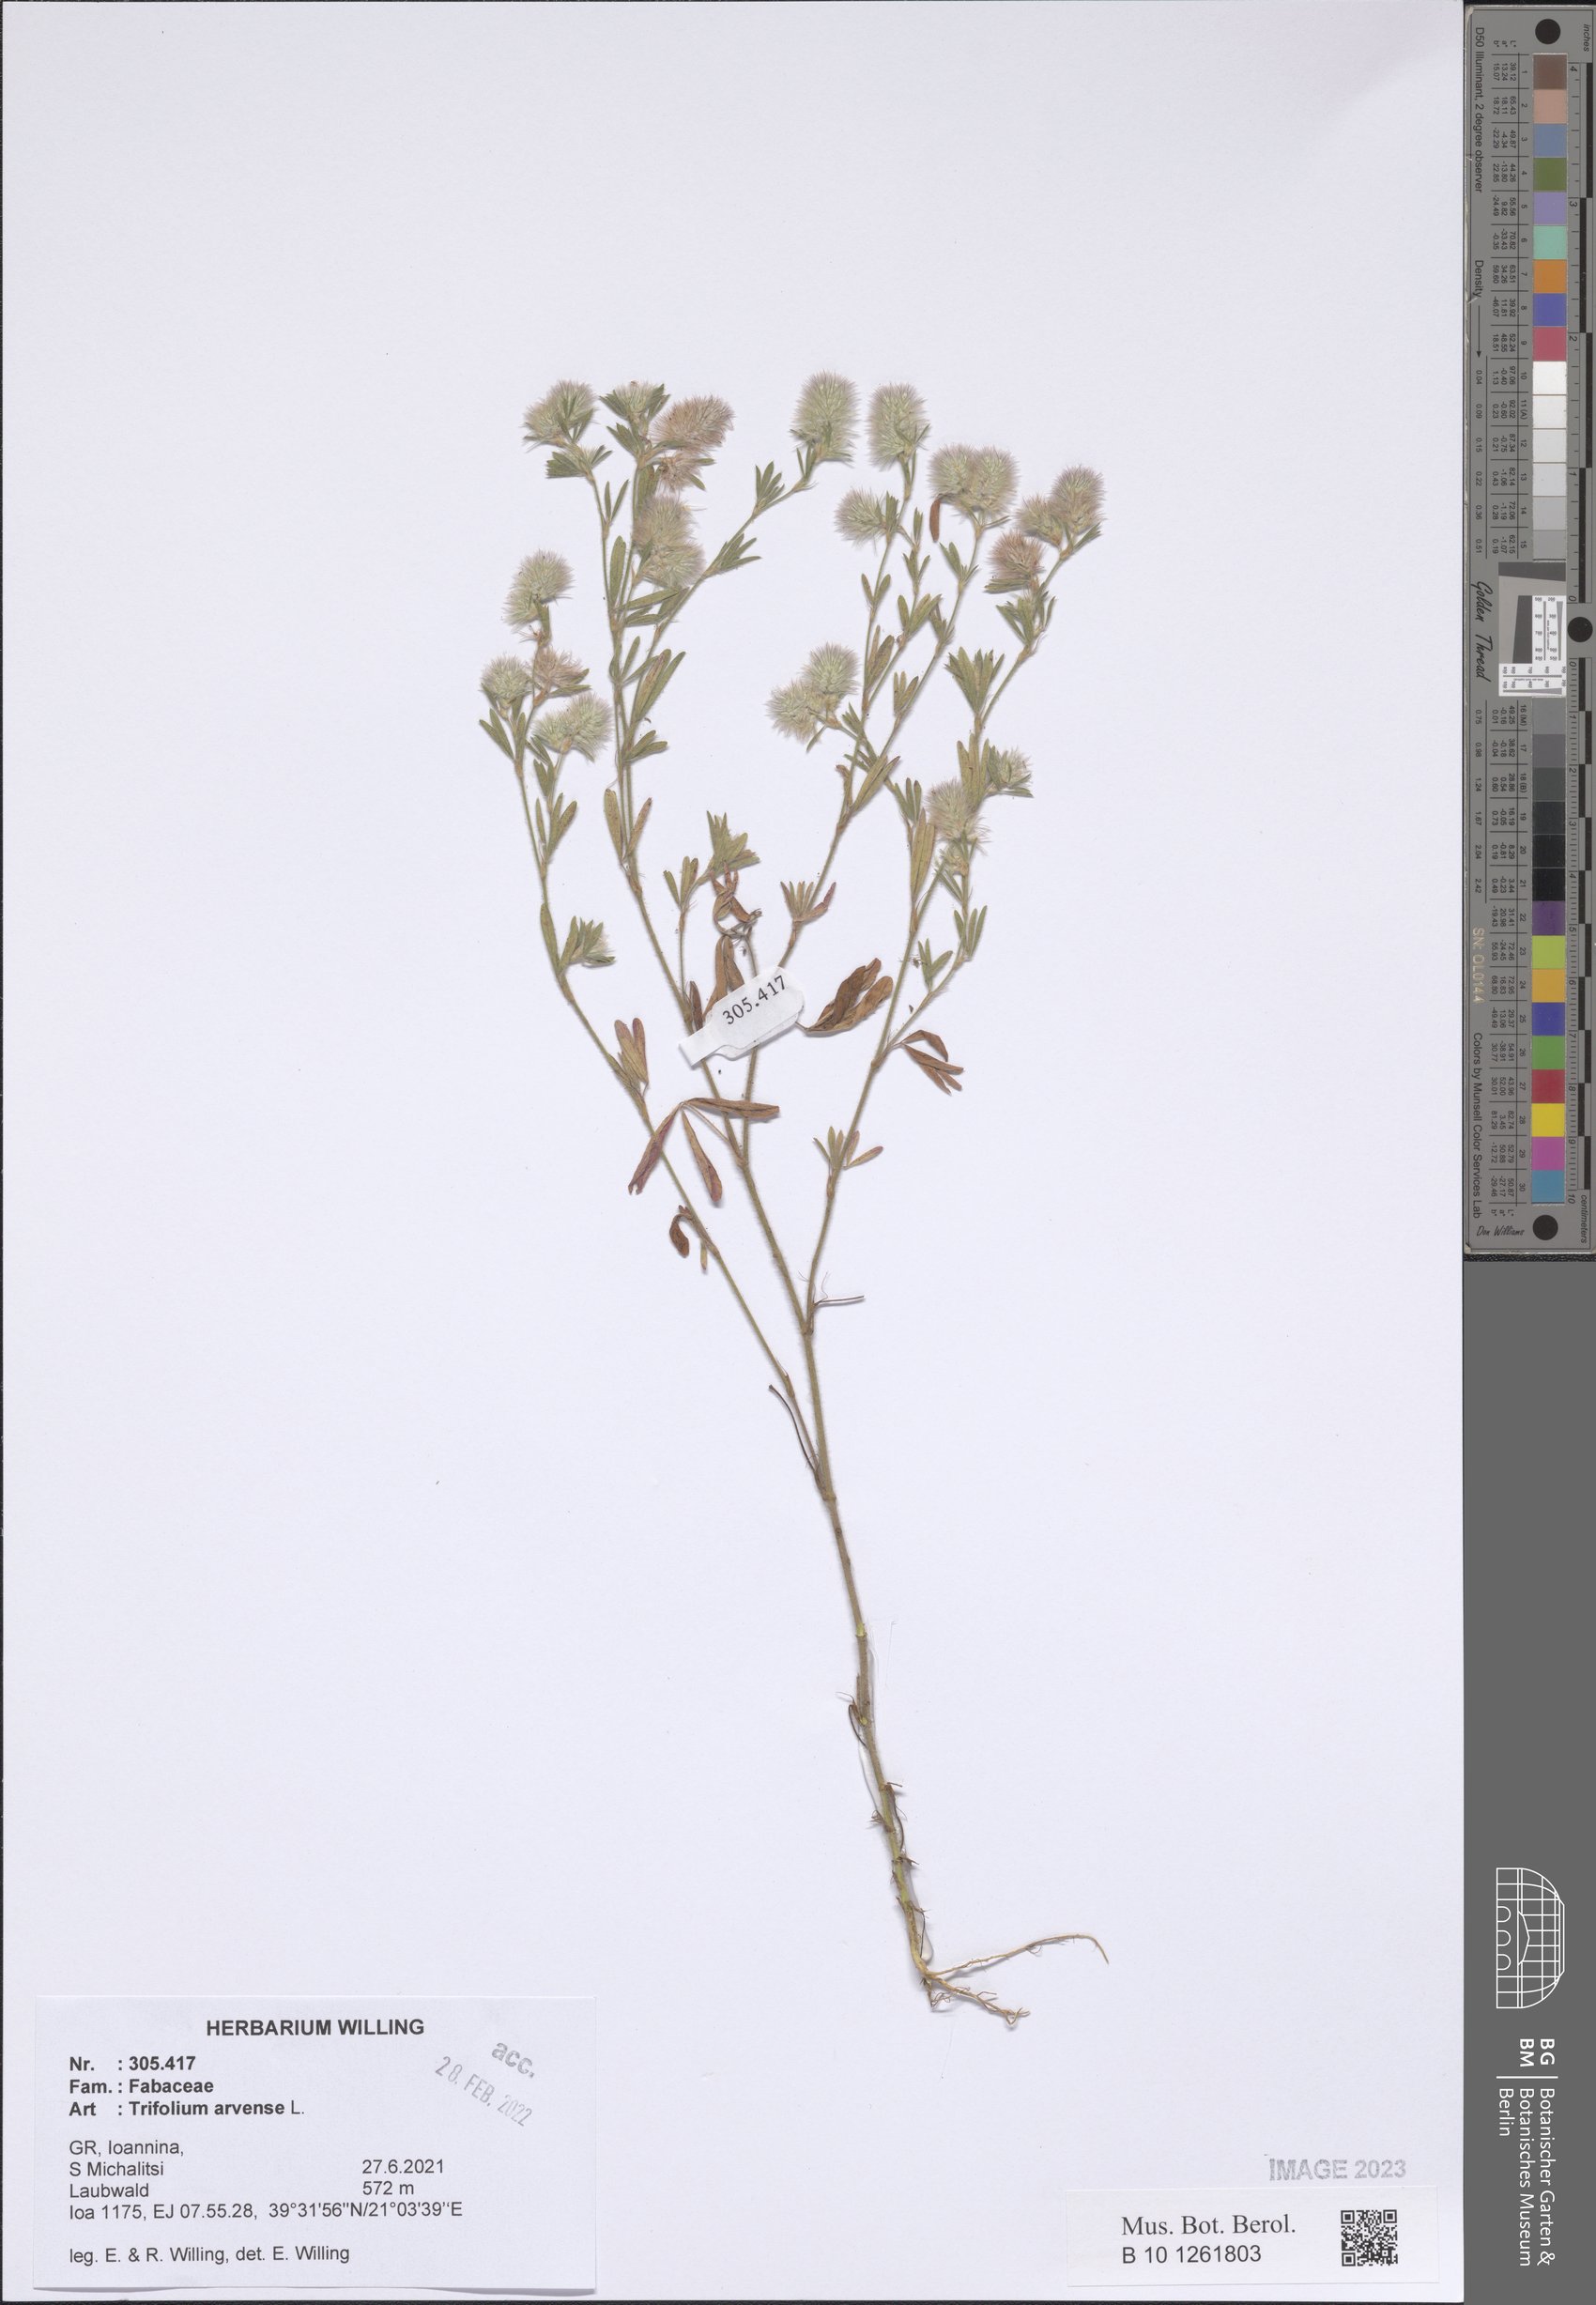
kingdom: Plantae
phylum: Tracheophyta
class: Magnoliopsida
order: Fabales
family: Fabaceae
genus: Trifolium
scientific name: Trifolium arvense
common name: Hare's-foot clover
